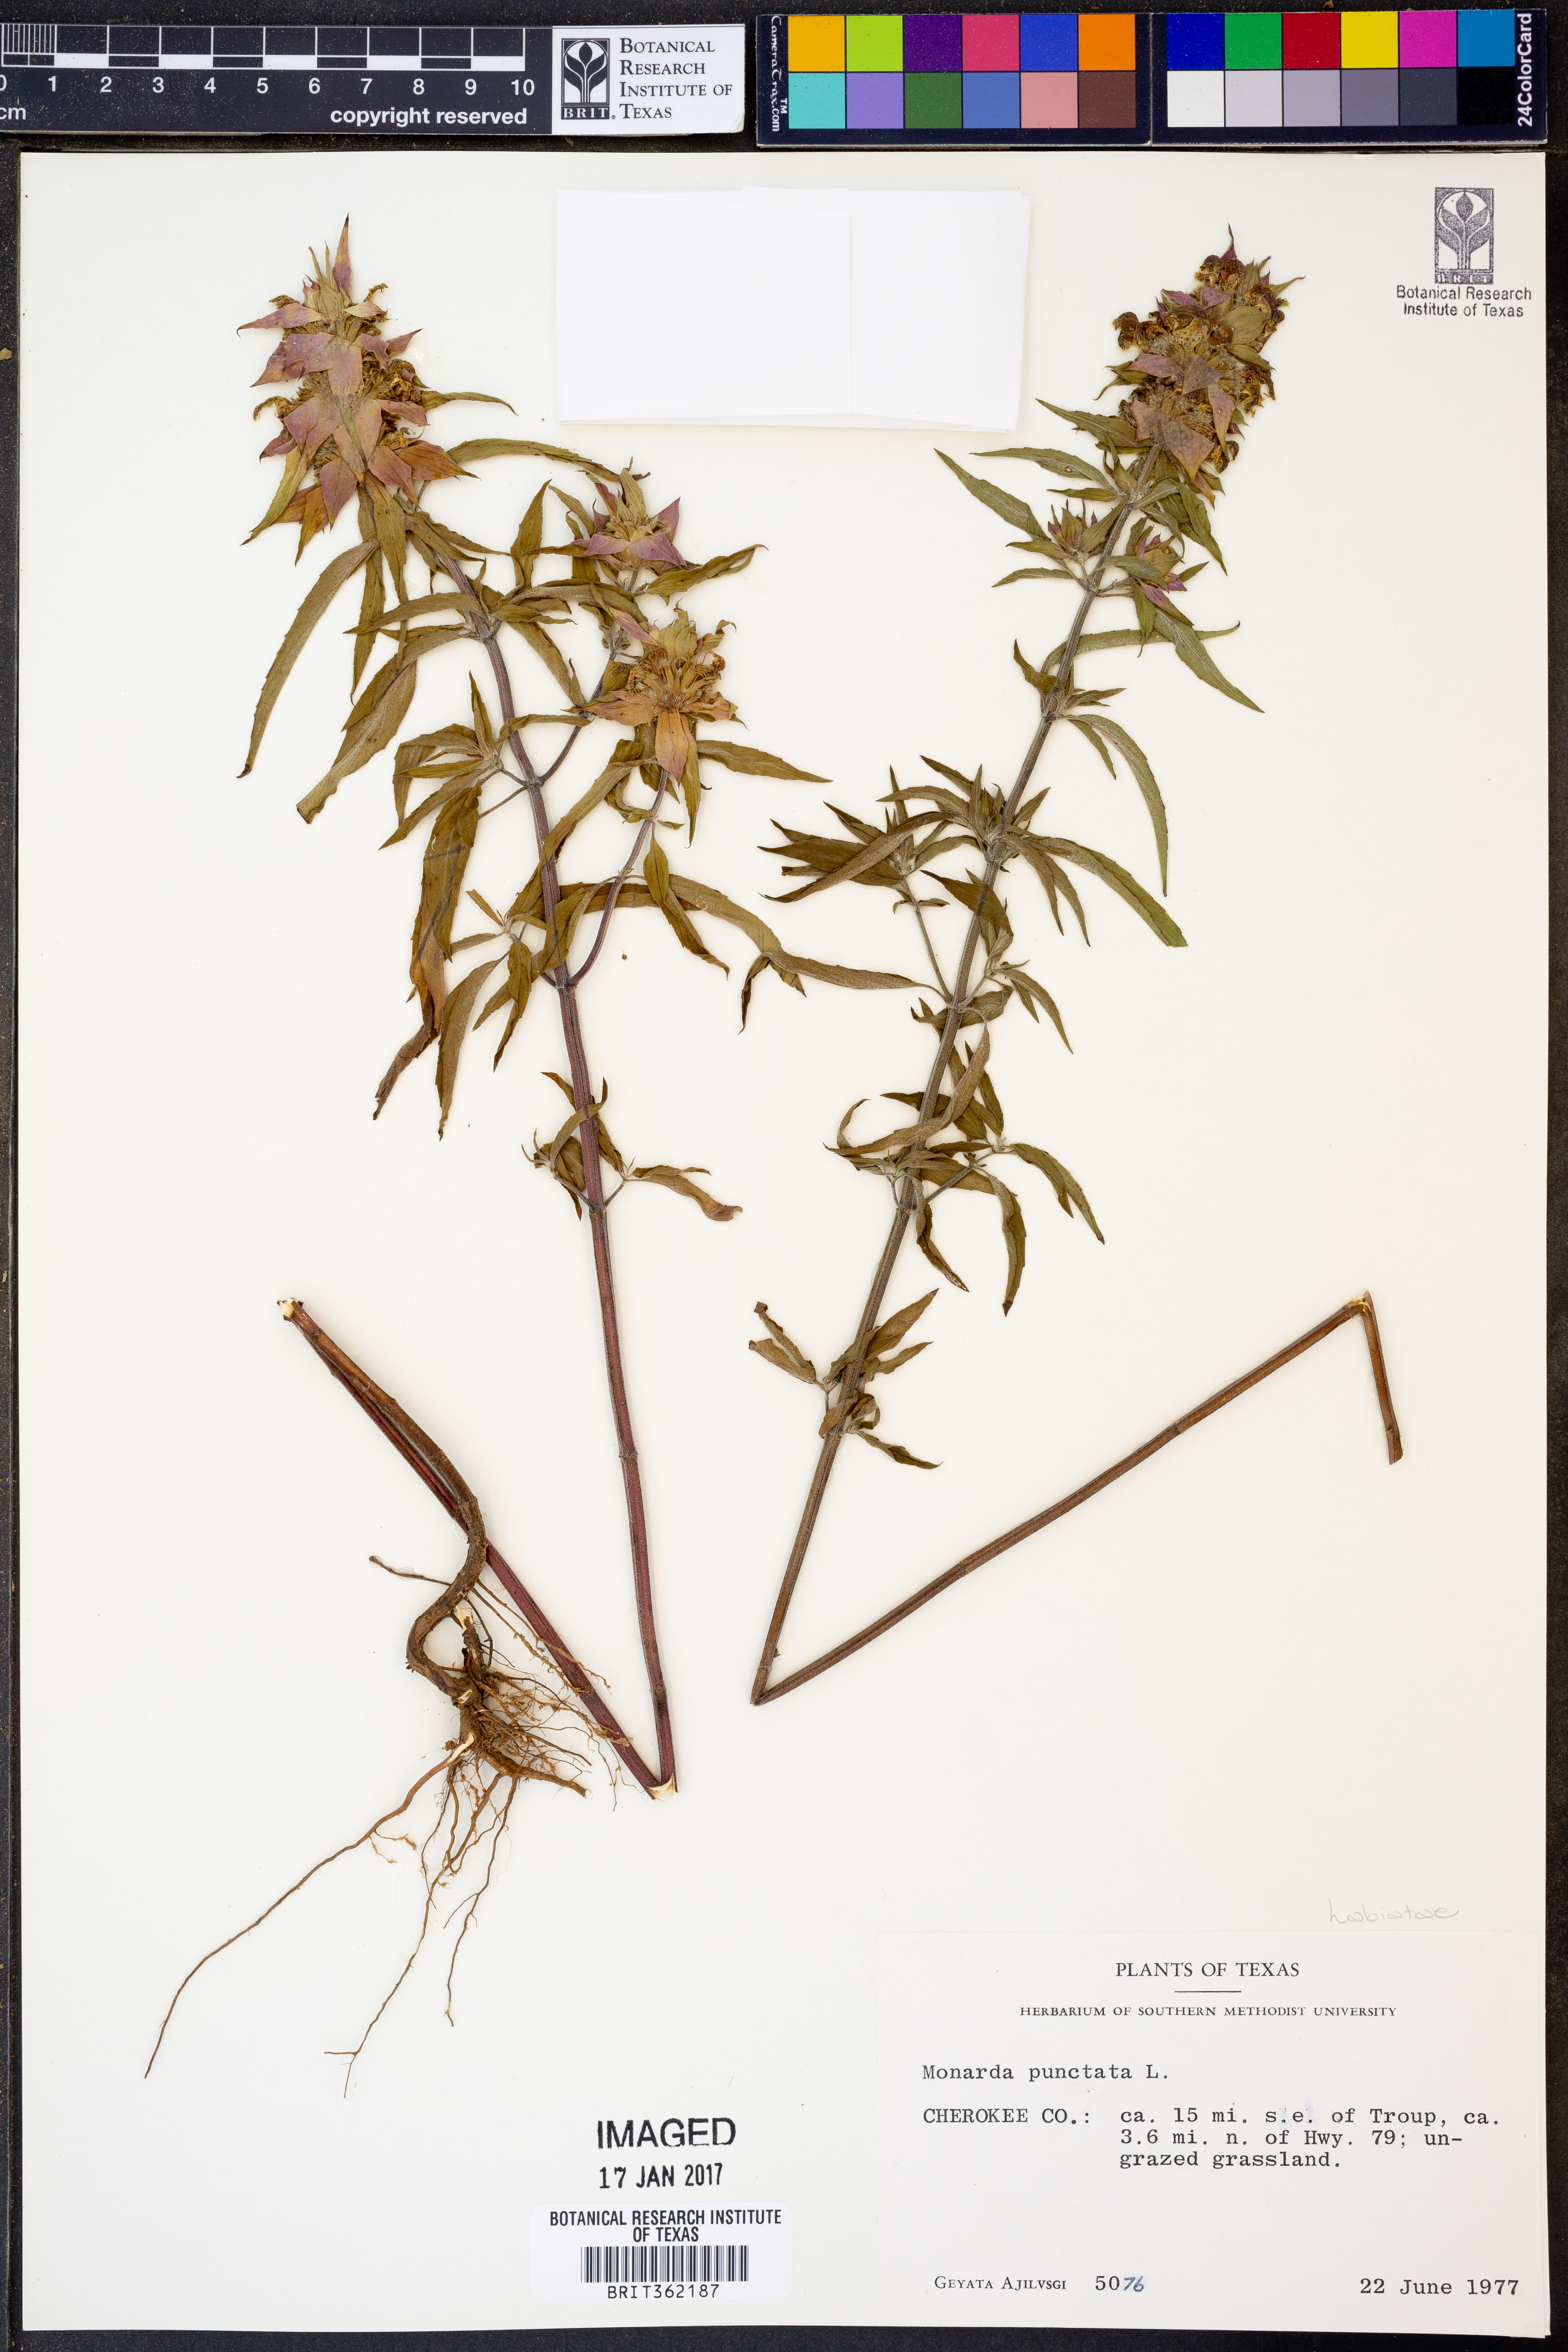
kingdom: Plantae
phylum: Tracheophyta
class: Magnoliopsida
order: Lamiales
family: Lamiaceae
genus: Monarda
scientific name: Monarda punctata
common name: Dotted monarda
